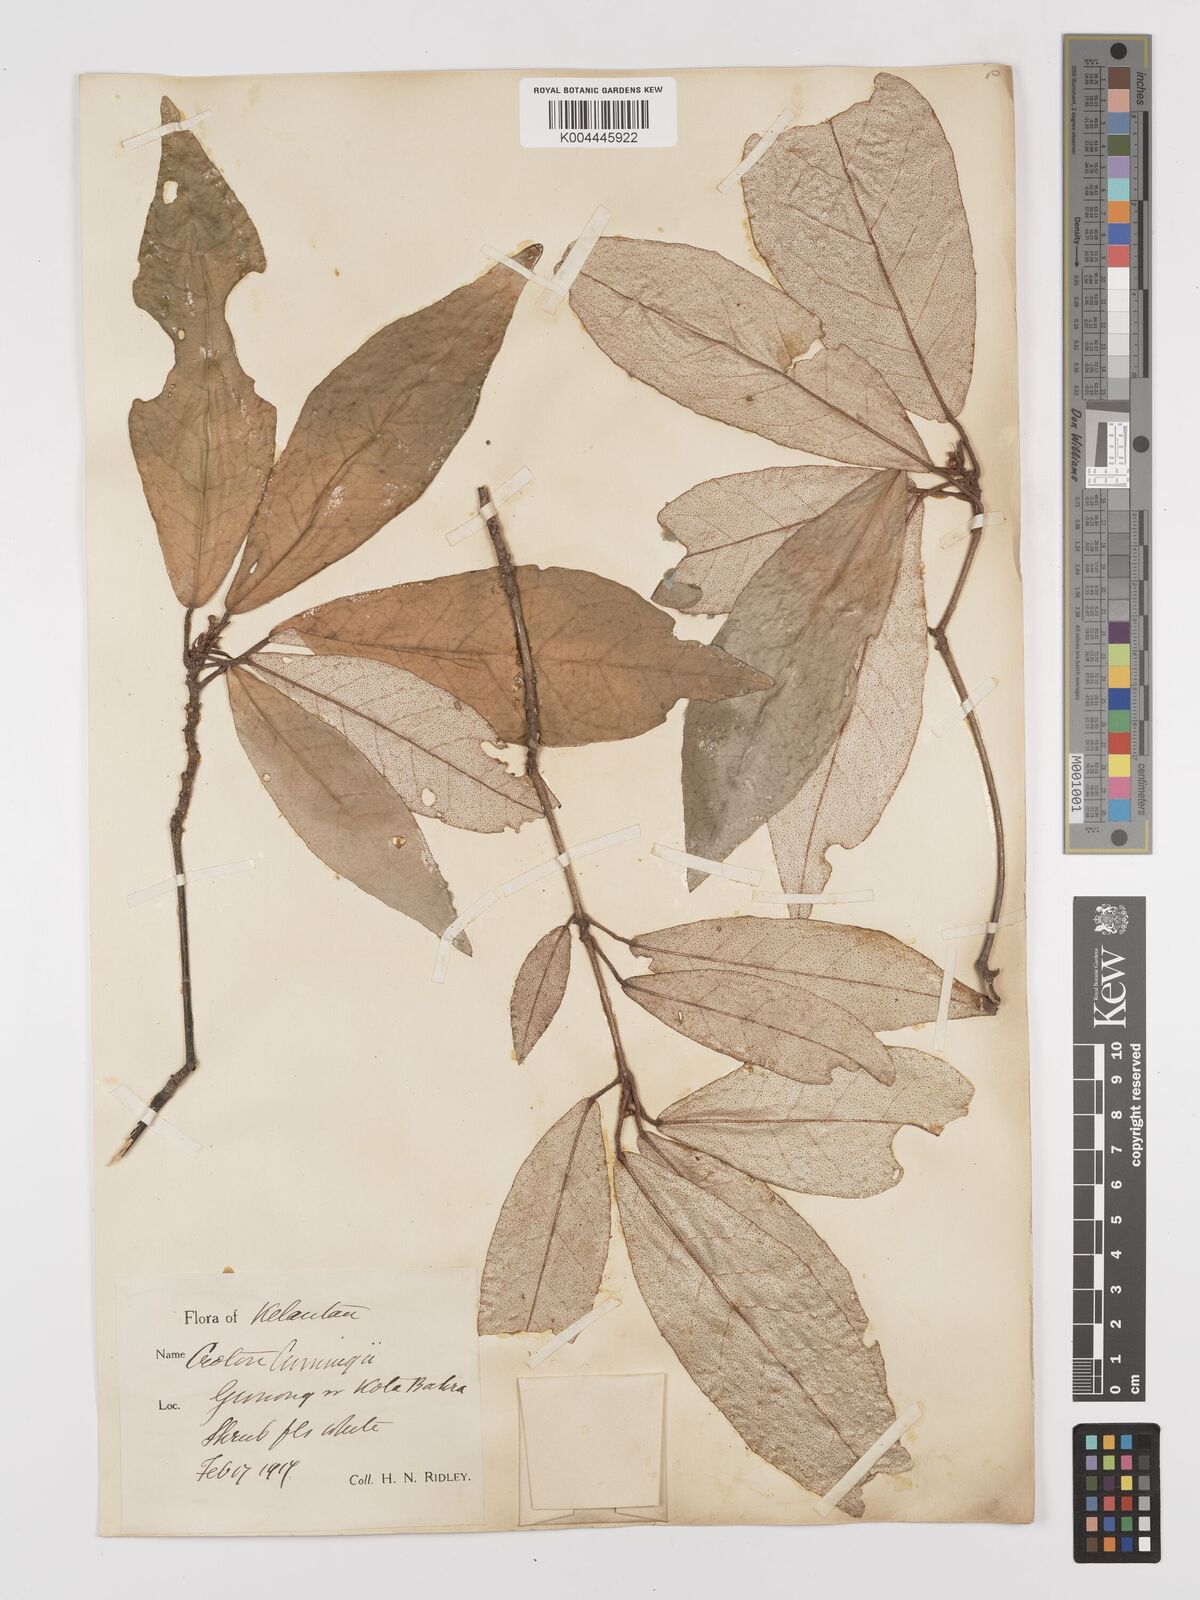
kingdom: Plantae
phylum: Tracheophyta
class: Magnoliopsida
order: Malpighiales
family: Euphorbiaceae
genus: Croton
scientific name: Croton cascarilloides
